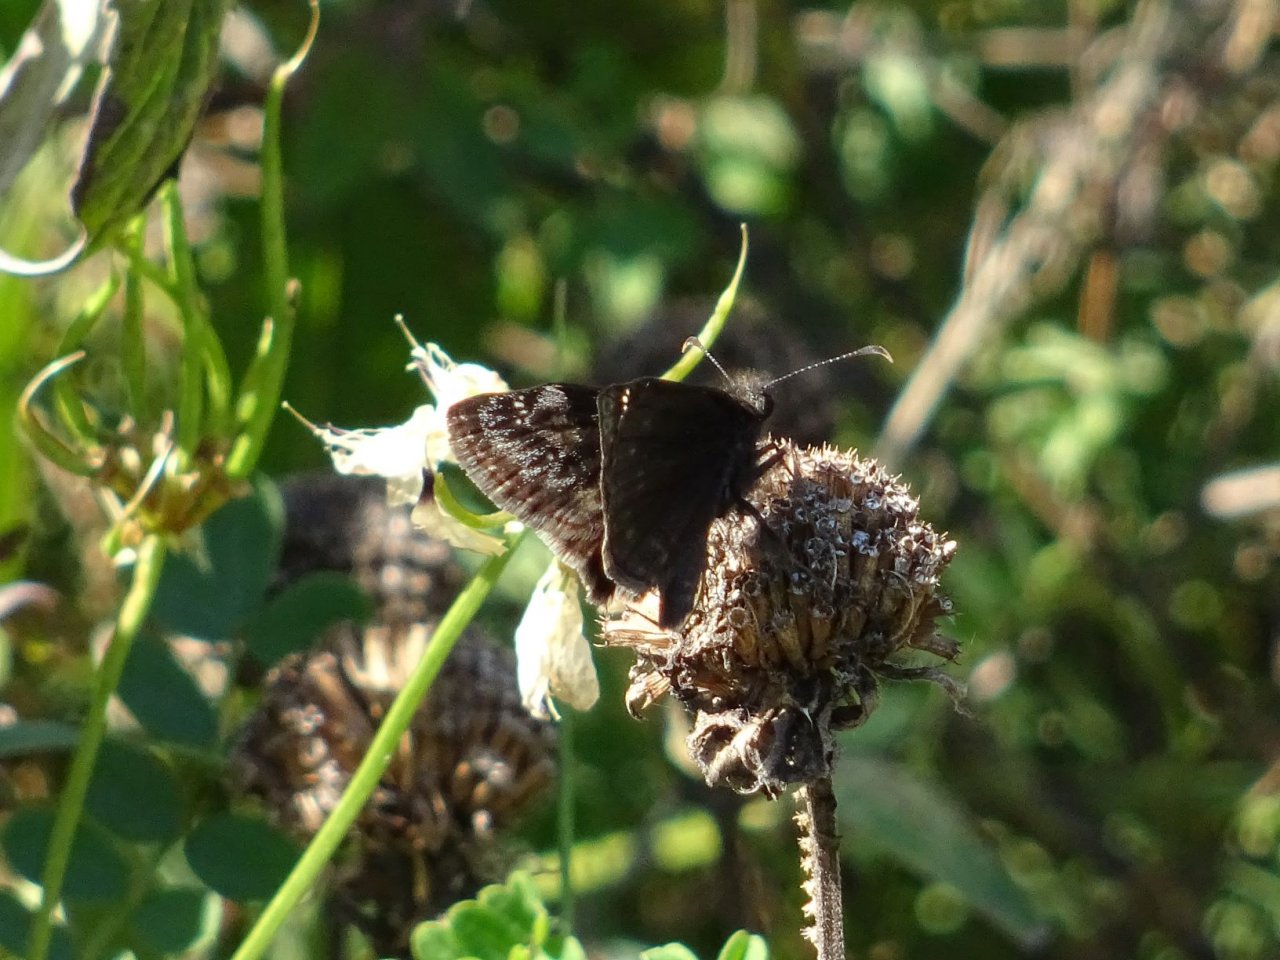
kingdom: Animalia
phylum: Arthropoda
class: Insecta
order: Lepidoptera
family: Hesperiidae
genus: Gesta
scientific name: Gesta
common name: Wild Indigo Duskywing
